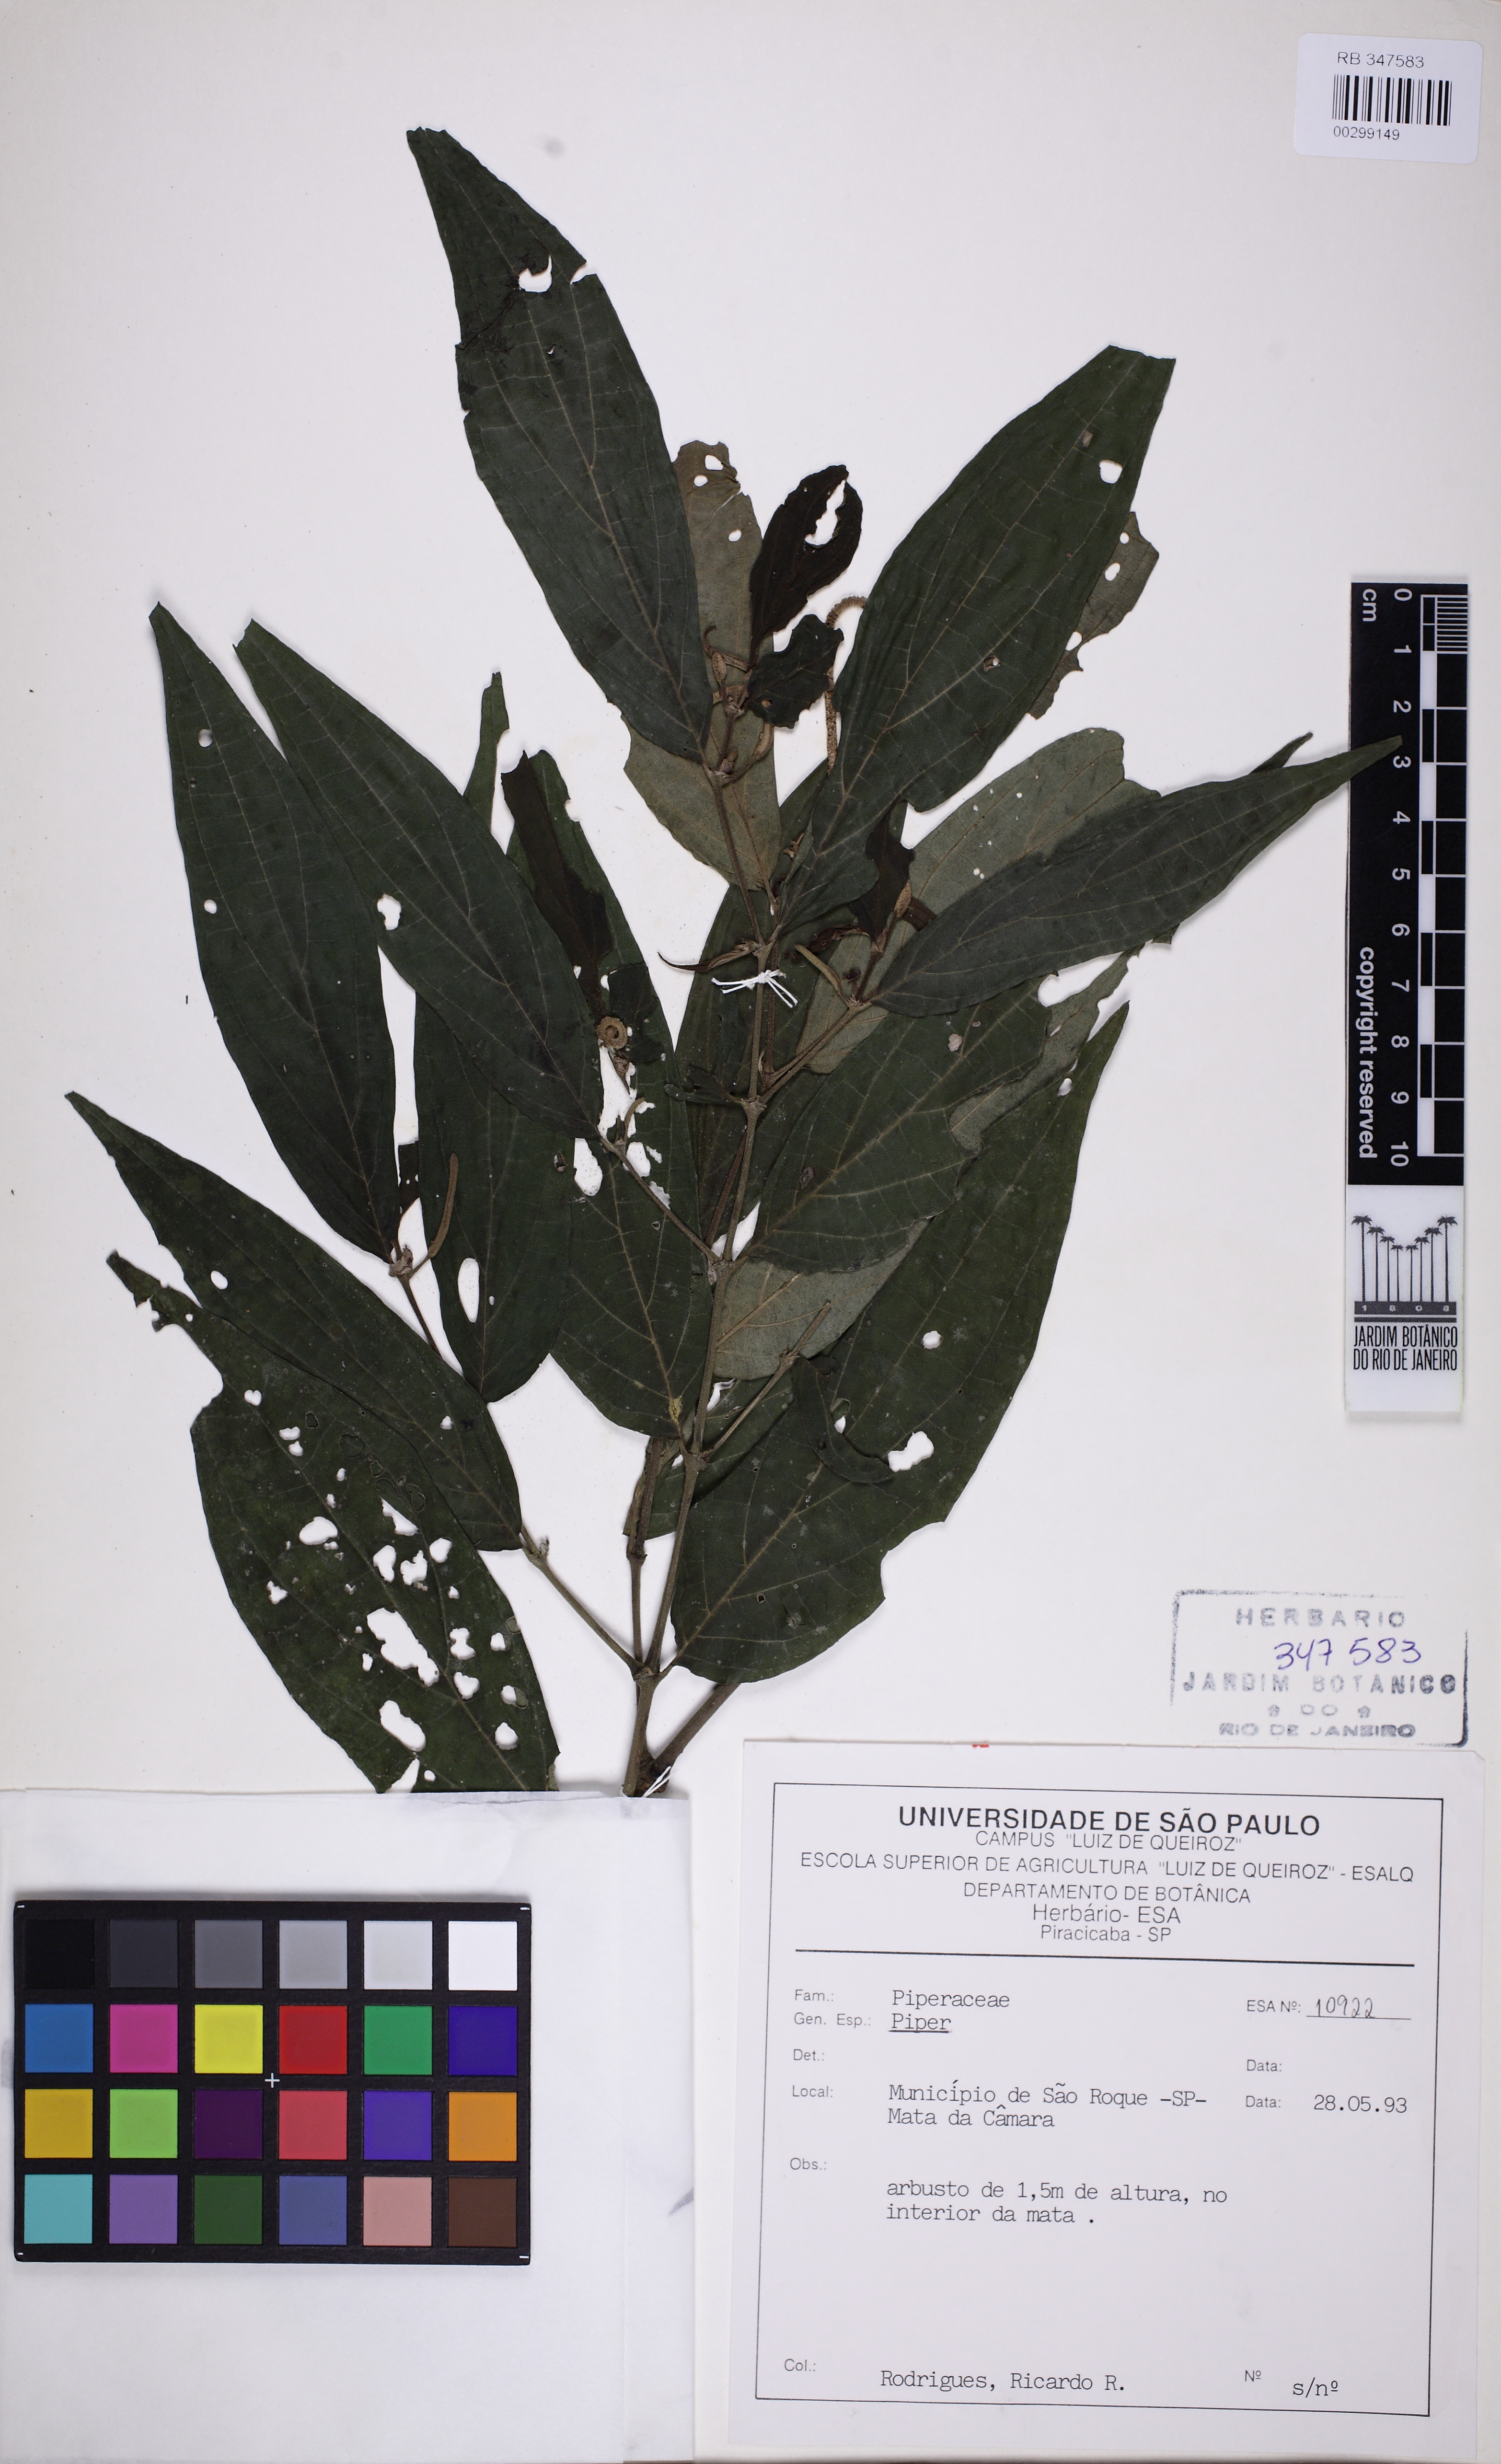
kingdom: Plantae
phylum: Tracheophyta
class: Magnoliopsida
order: Piperales
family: Piperaceae
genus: Piper
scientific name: Piper chimonanthifolium
